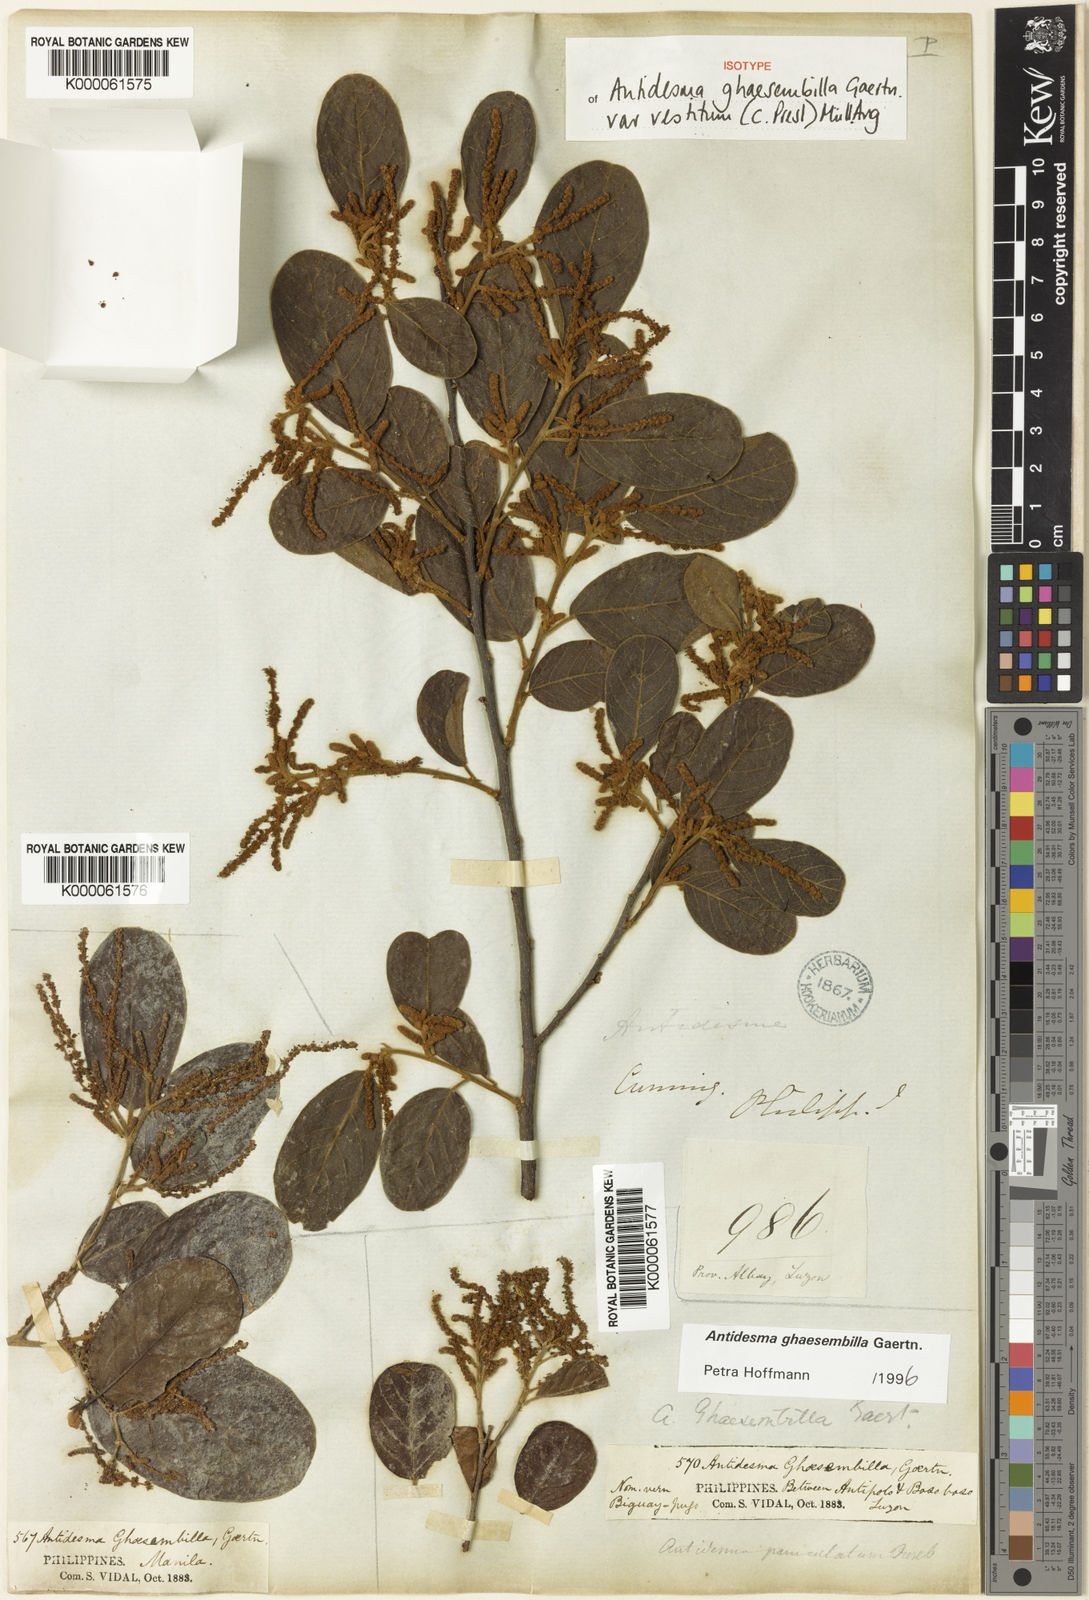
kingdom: Plantae
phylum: Tracheophyta
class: Magnoliopsida
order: Malpighiales
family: Phyllanthaceae
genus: Antidesma
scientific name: Antidesma ghaesembilla
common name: Black currant-tree
